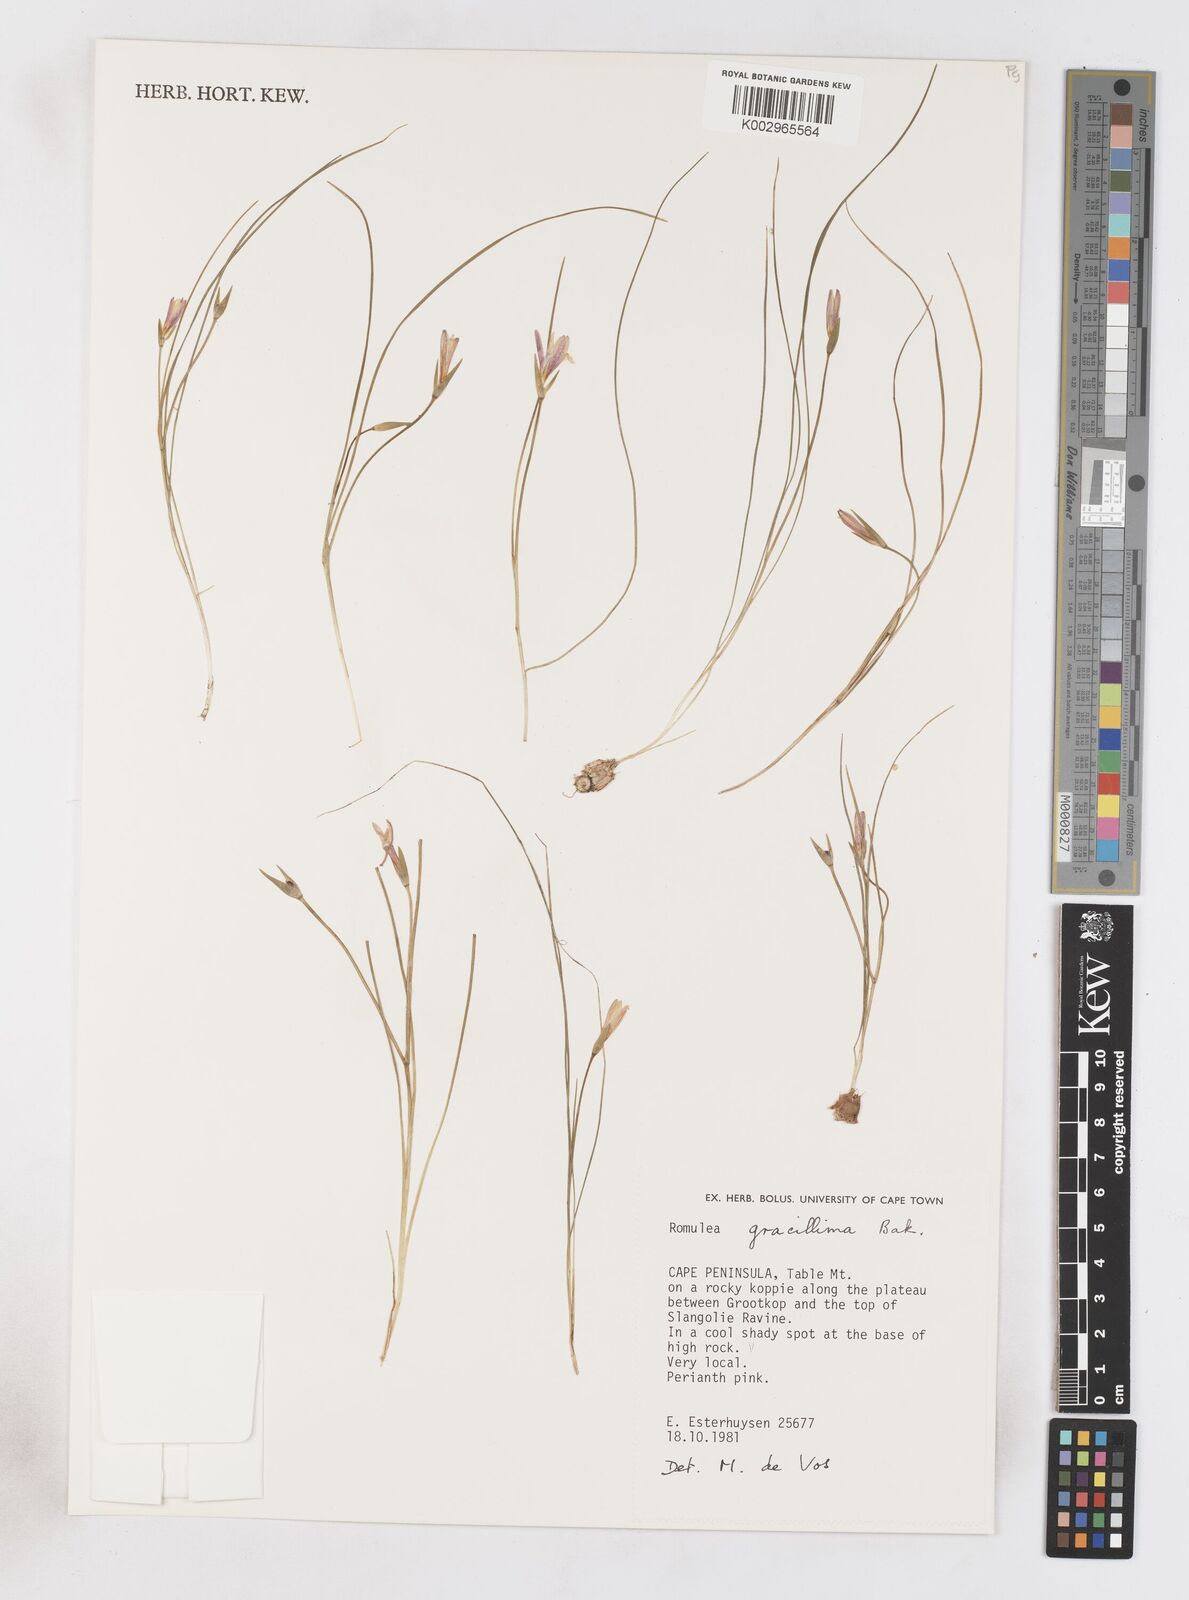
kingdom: Plantae
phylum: Tracheophyta
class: Liliopsida
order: Asparagales
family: Iridaceae
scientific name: Iridaceae
